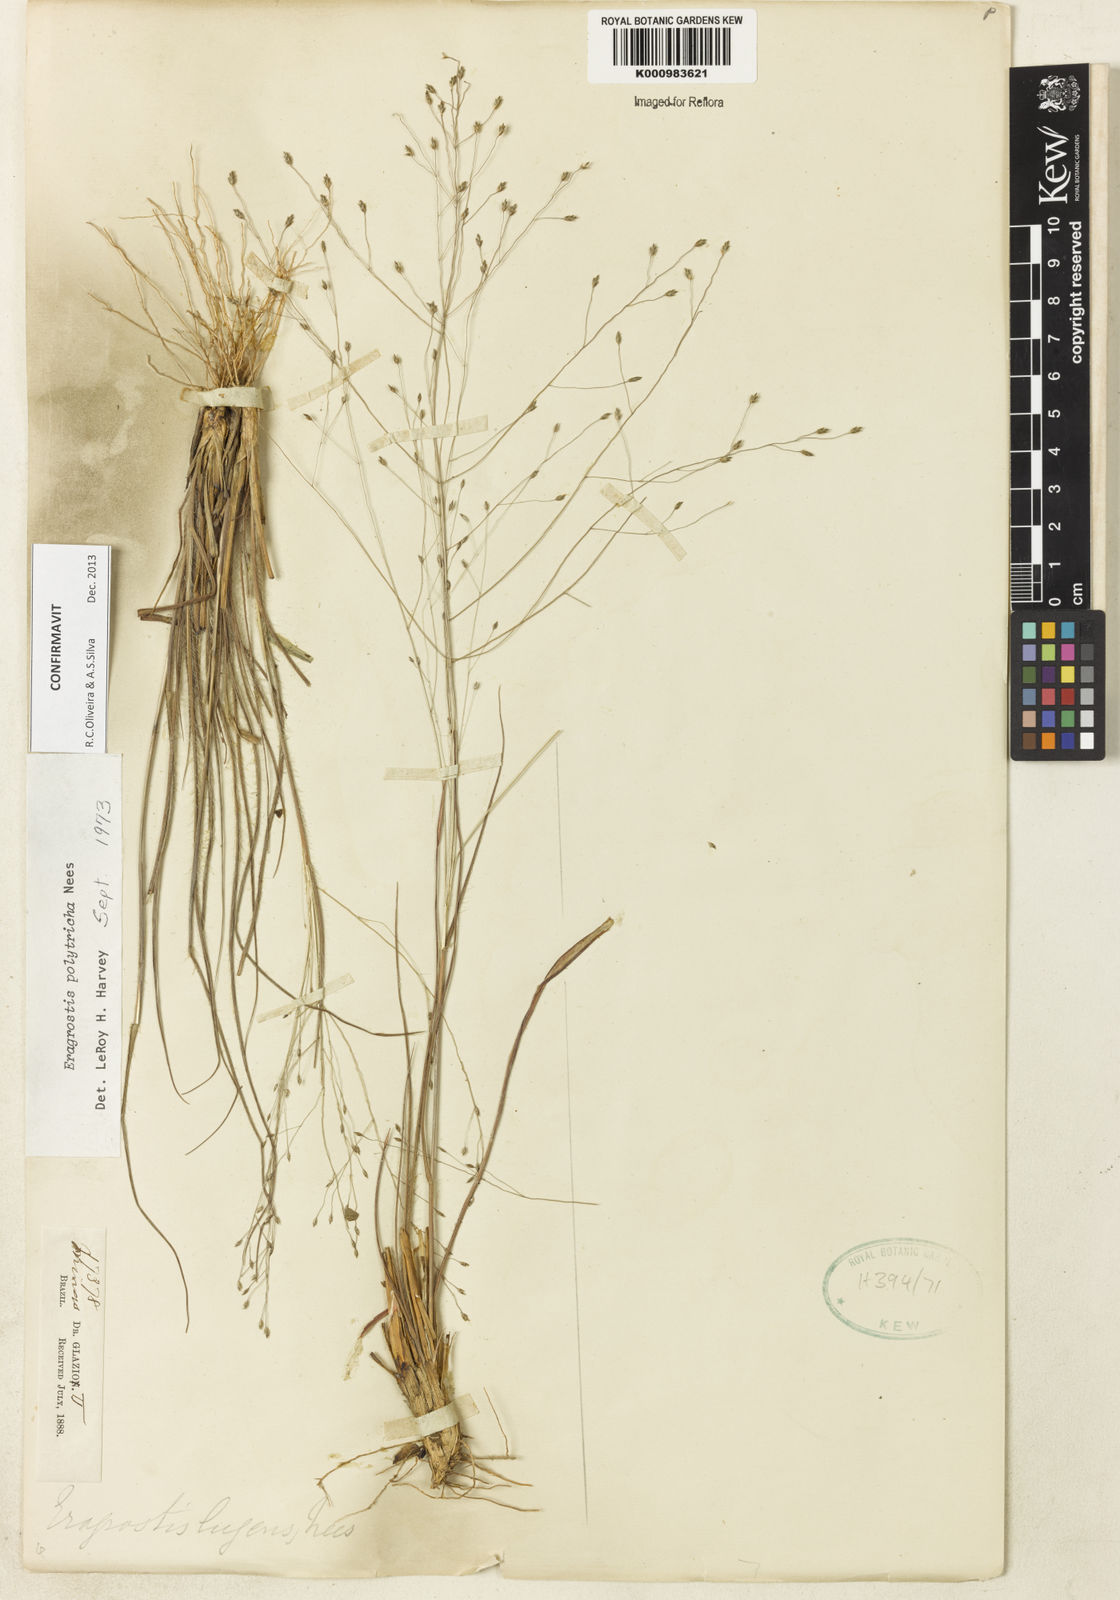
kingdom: Plantae
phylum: Tracheophyta
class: Liliopsida
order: Poales
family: Poaceae
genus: Eragrostis
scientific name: Eragrostis polytricha
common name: Hairy-sheath love grass
